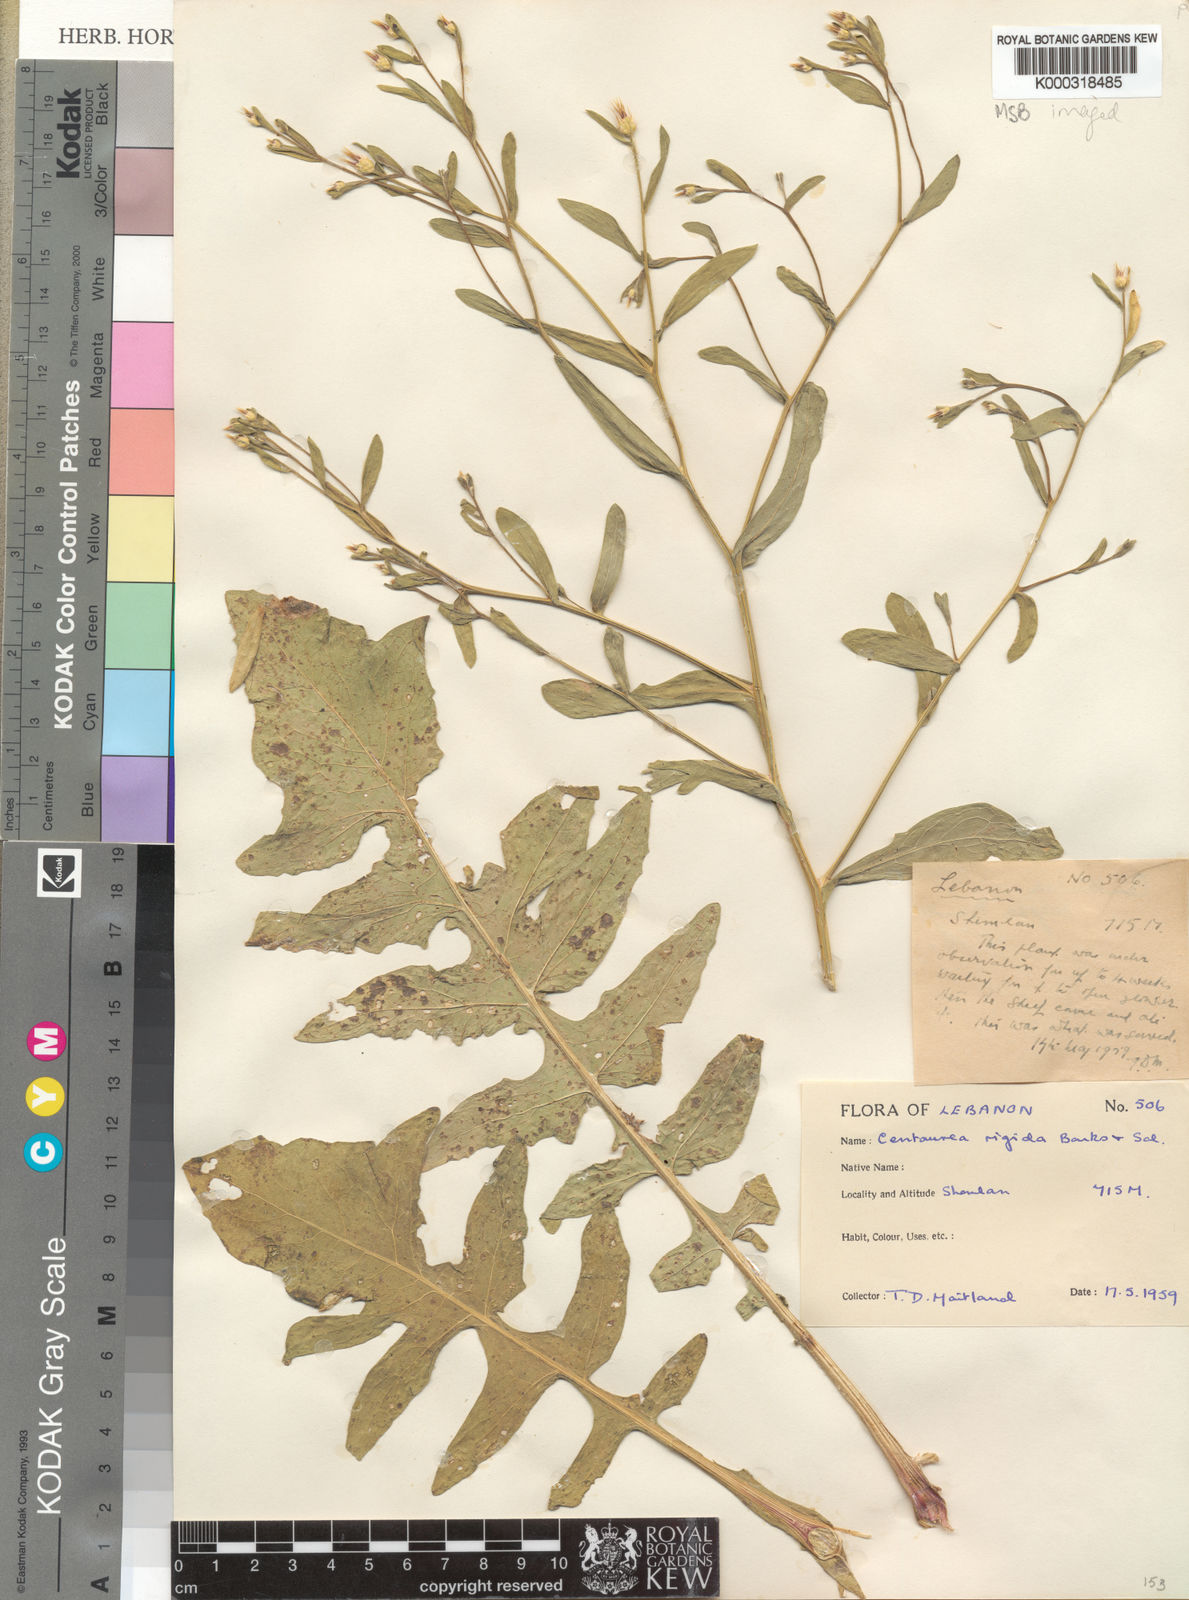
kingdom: Plantae
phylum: Tracheophyta
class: Magnoliopsida
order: Asterales
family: Asteraceae
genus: Centaurea
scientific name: Centaurea rigida
